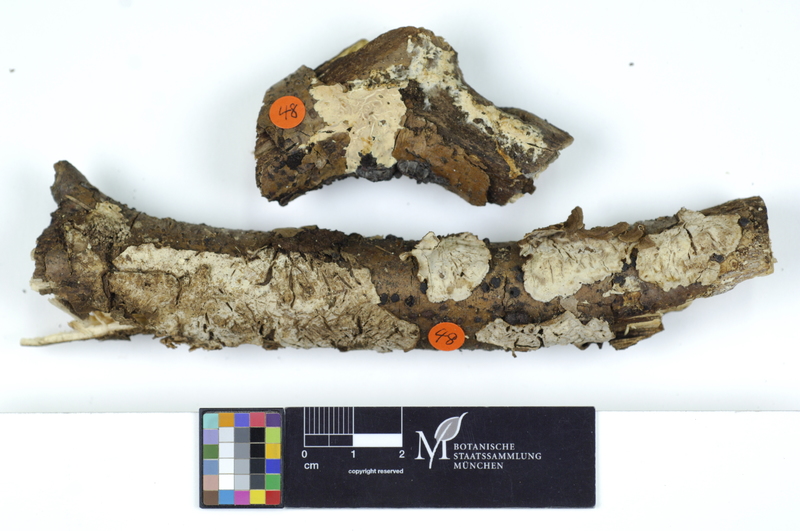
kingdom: Fungi
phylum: Basidiomycota
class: Agaricomycetes
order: Russulales
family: Hericiaceae
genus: Laxitextum
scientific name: Laxitextum bicolor
